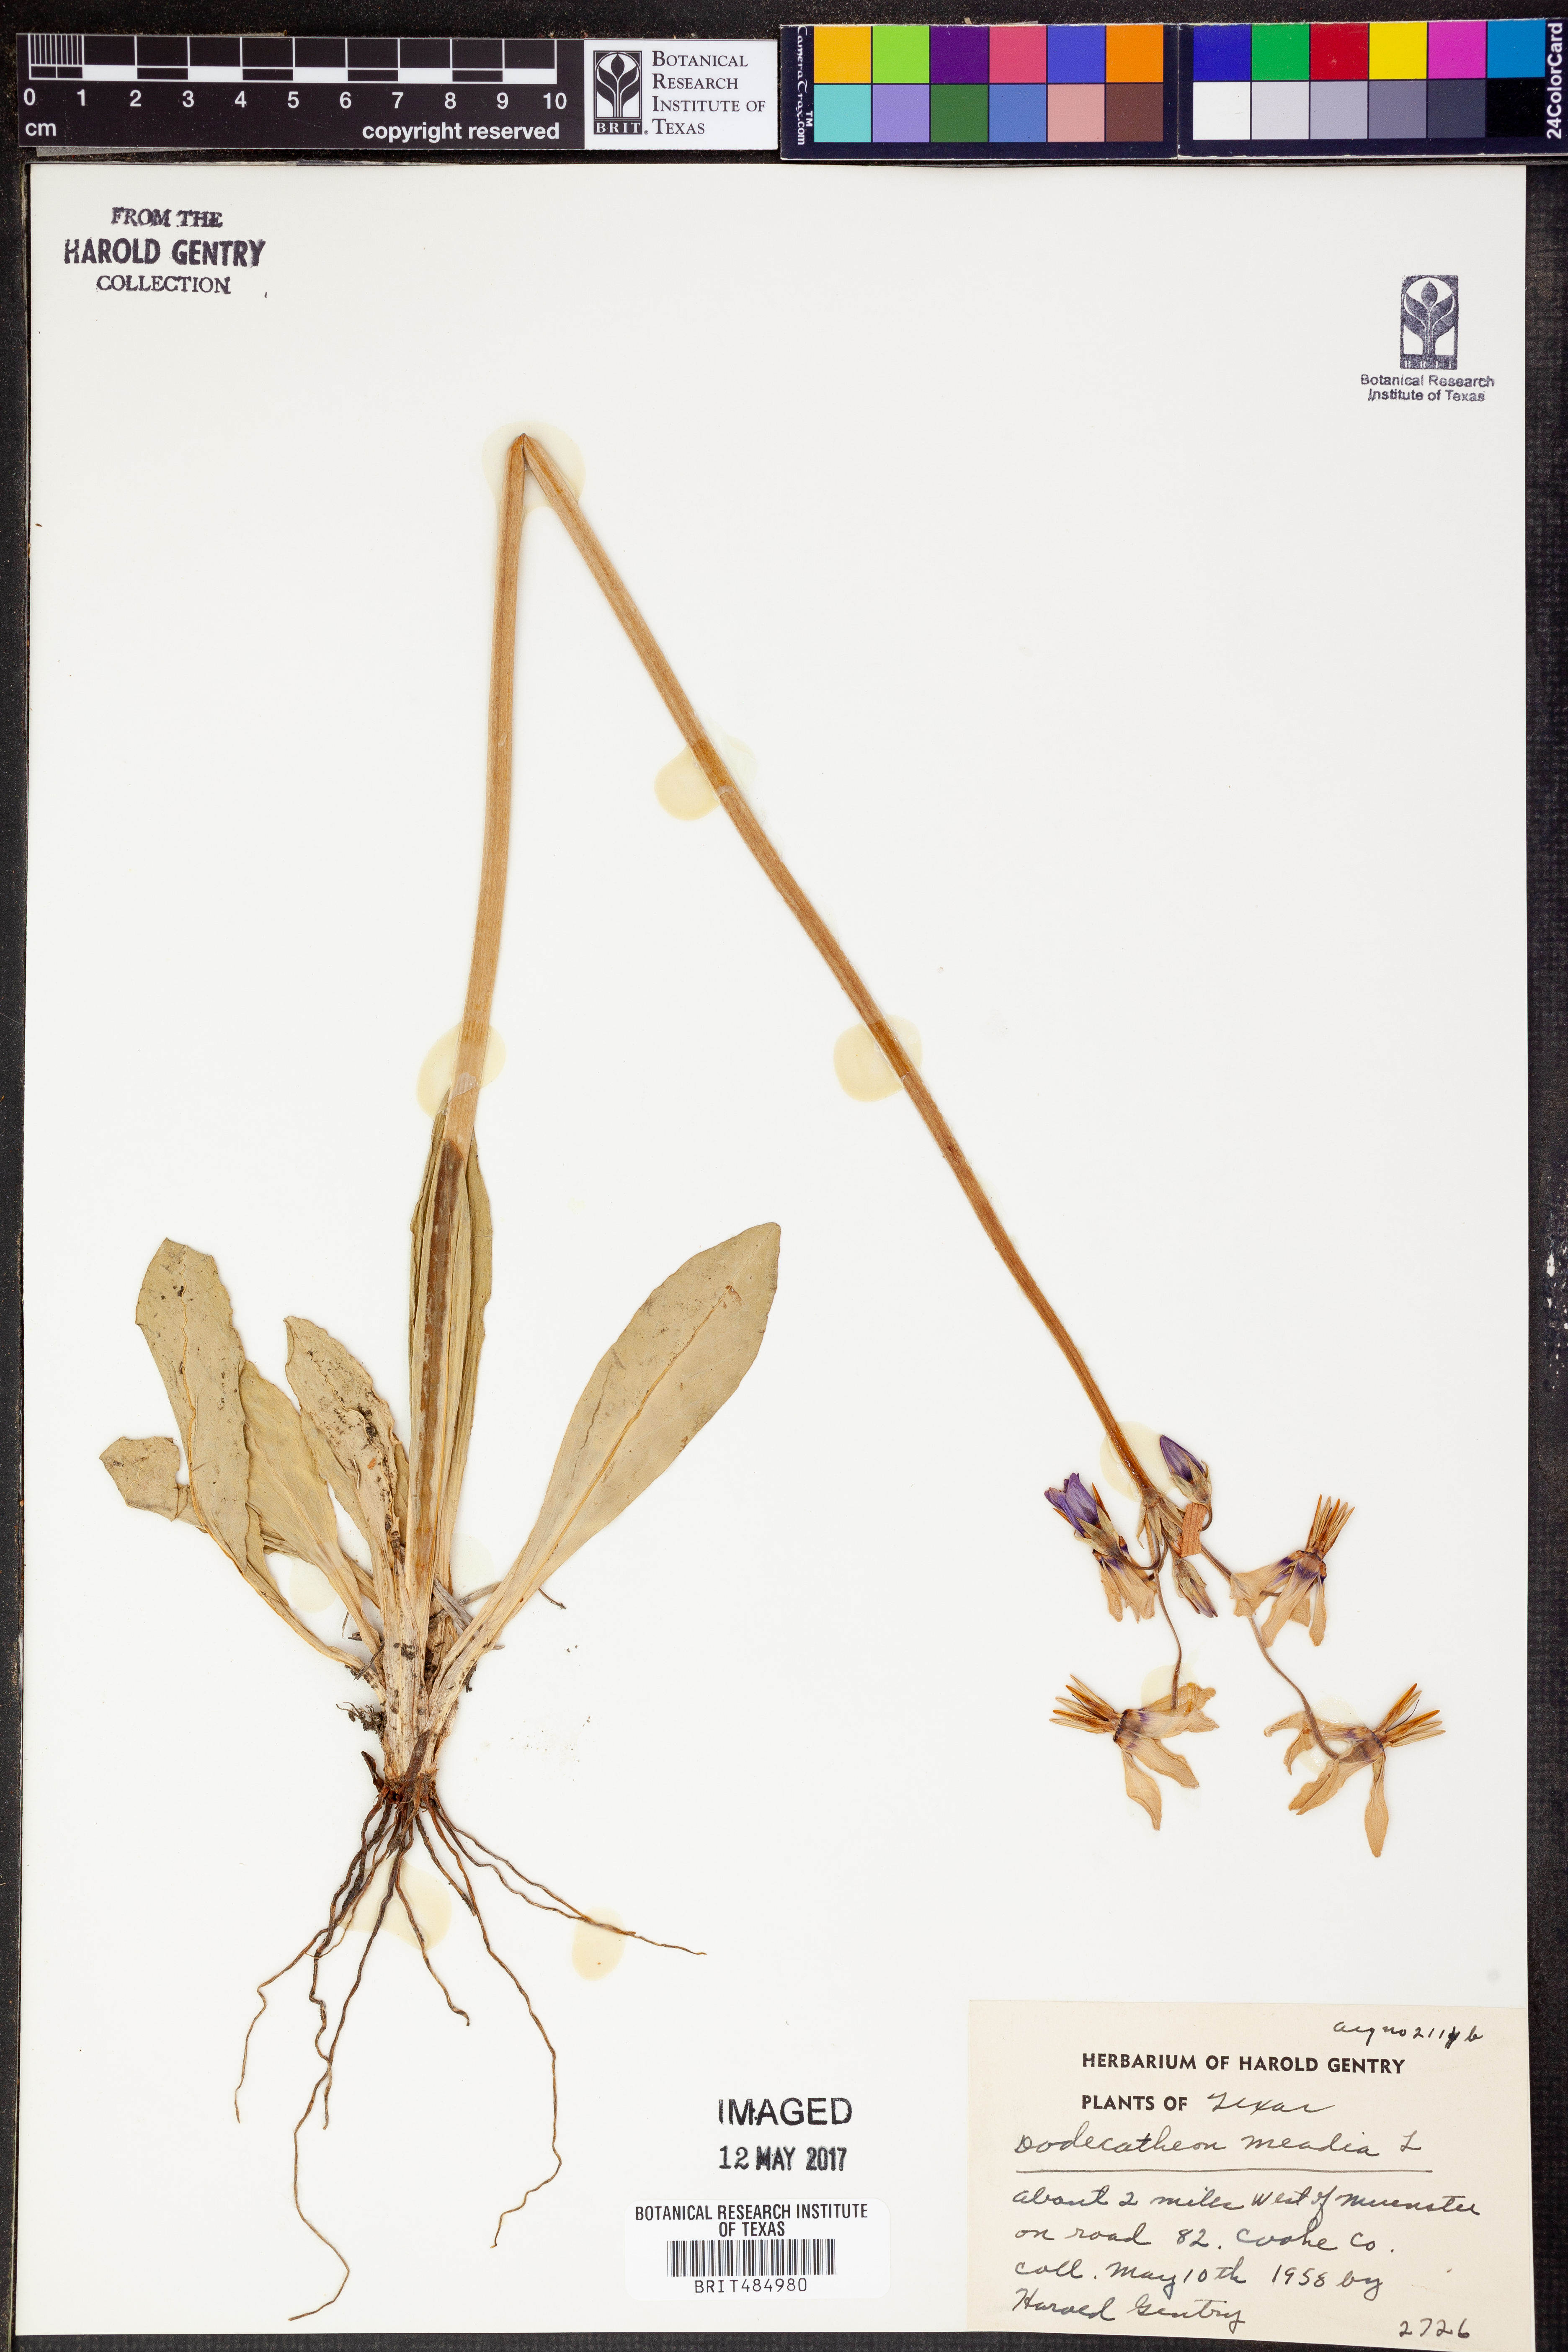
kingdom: Plantae
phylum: Tracheophyta
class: Magnoliopsida
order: Ericales
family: Primulaceae
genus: Dodecatheon
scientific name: Dodecatheon meadia
